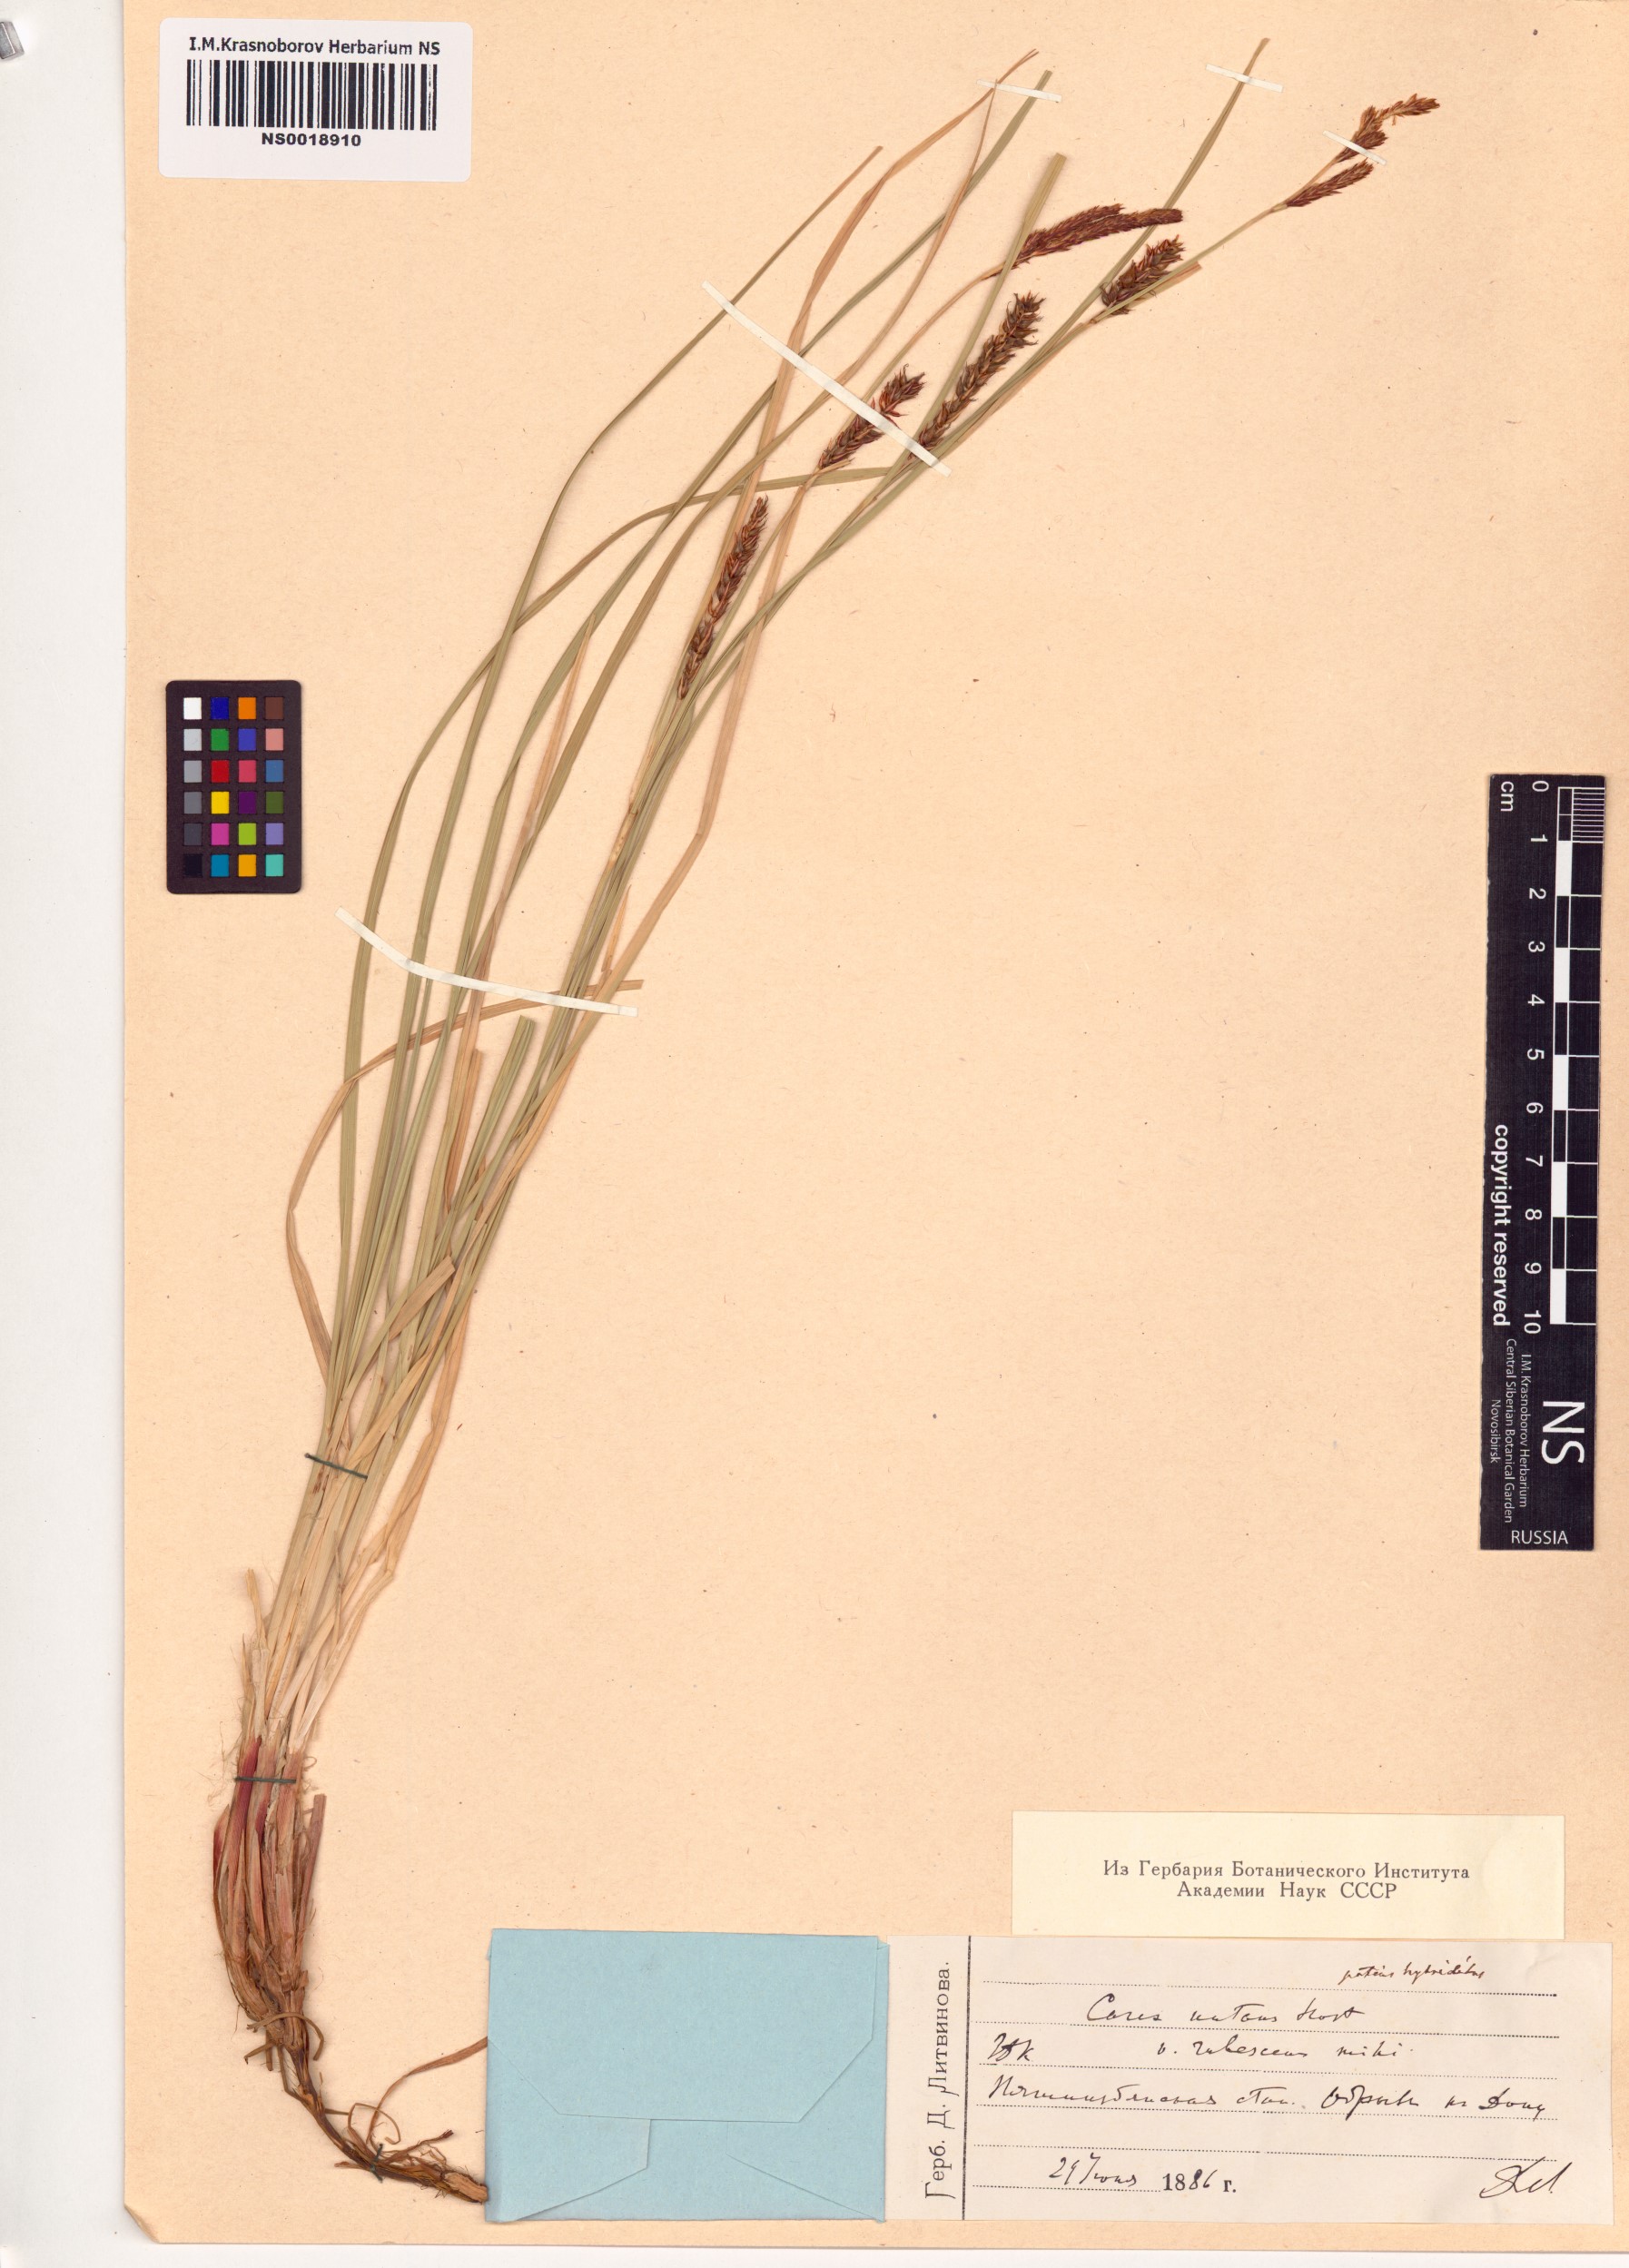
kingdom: Plantae
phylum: Tracheophyta
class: Liliopsida
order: Poales
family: Cyperaceae
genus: Carex
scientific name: Carex melanostachya
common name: Black-spiked sedge
